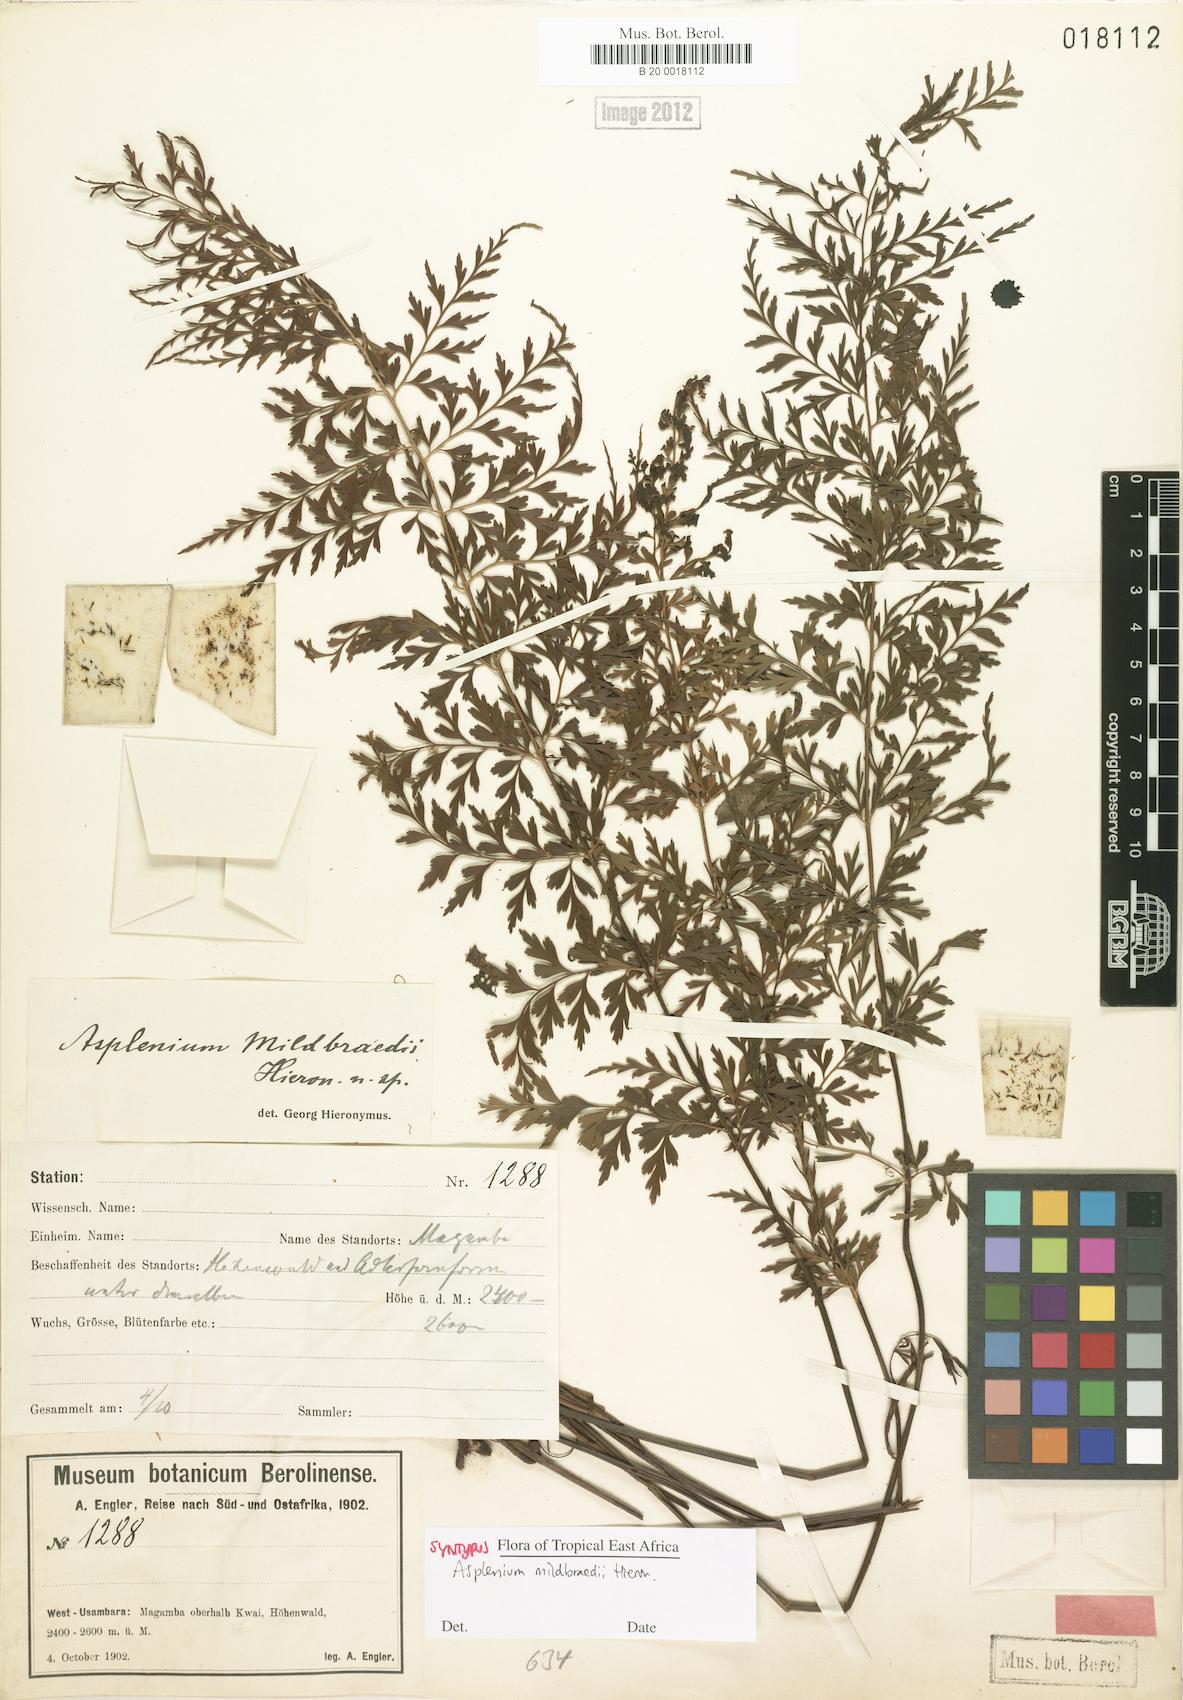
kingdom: Plantae
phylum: Tracheophyta
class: Polypodiopsida
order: Polypodiales
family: Aspleniaceae
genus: Asplenium
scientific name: Asplenium mildbraedii
